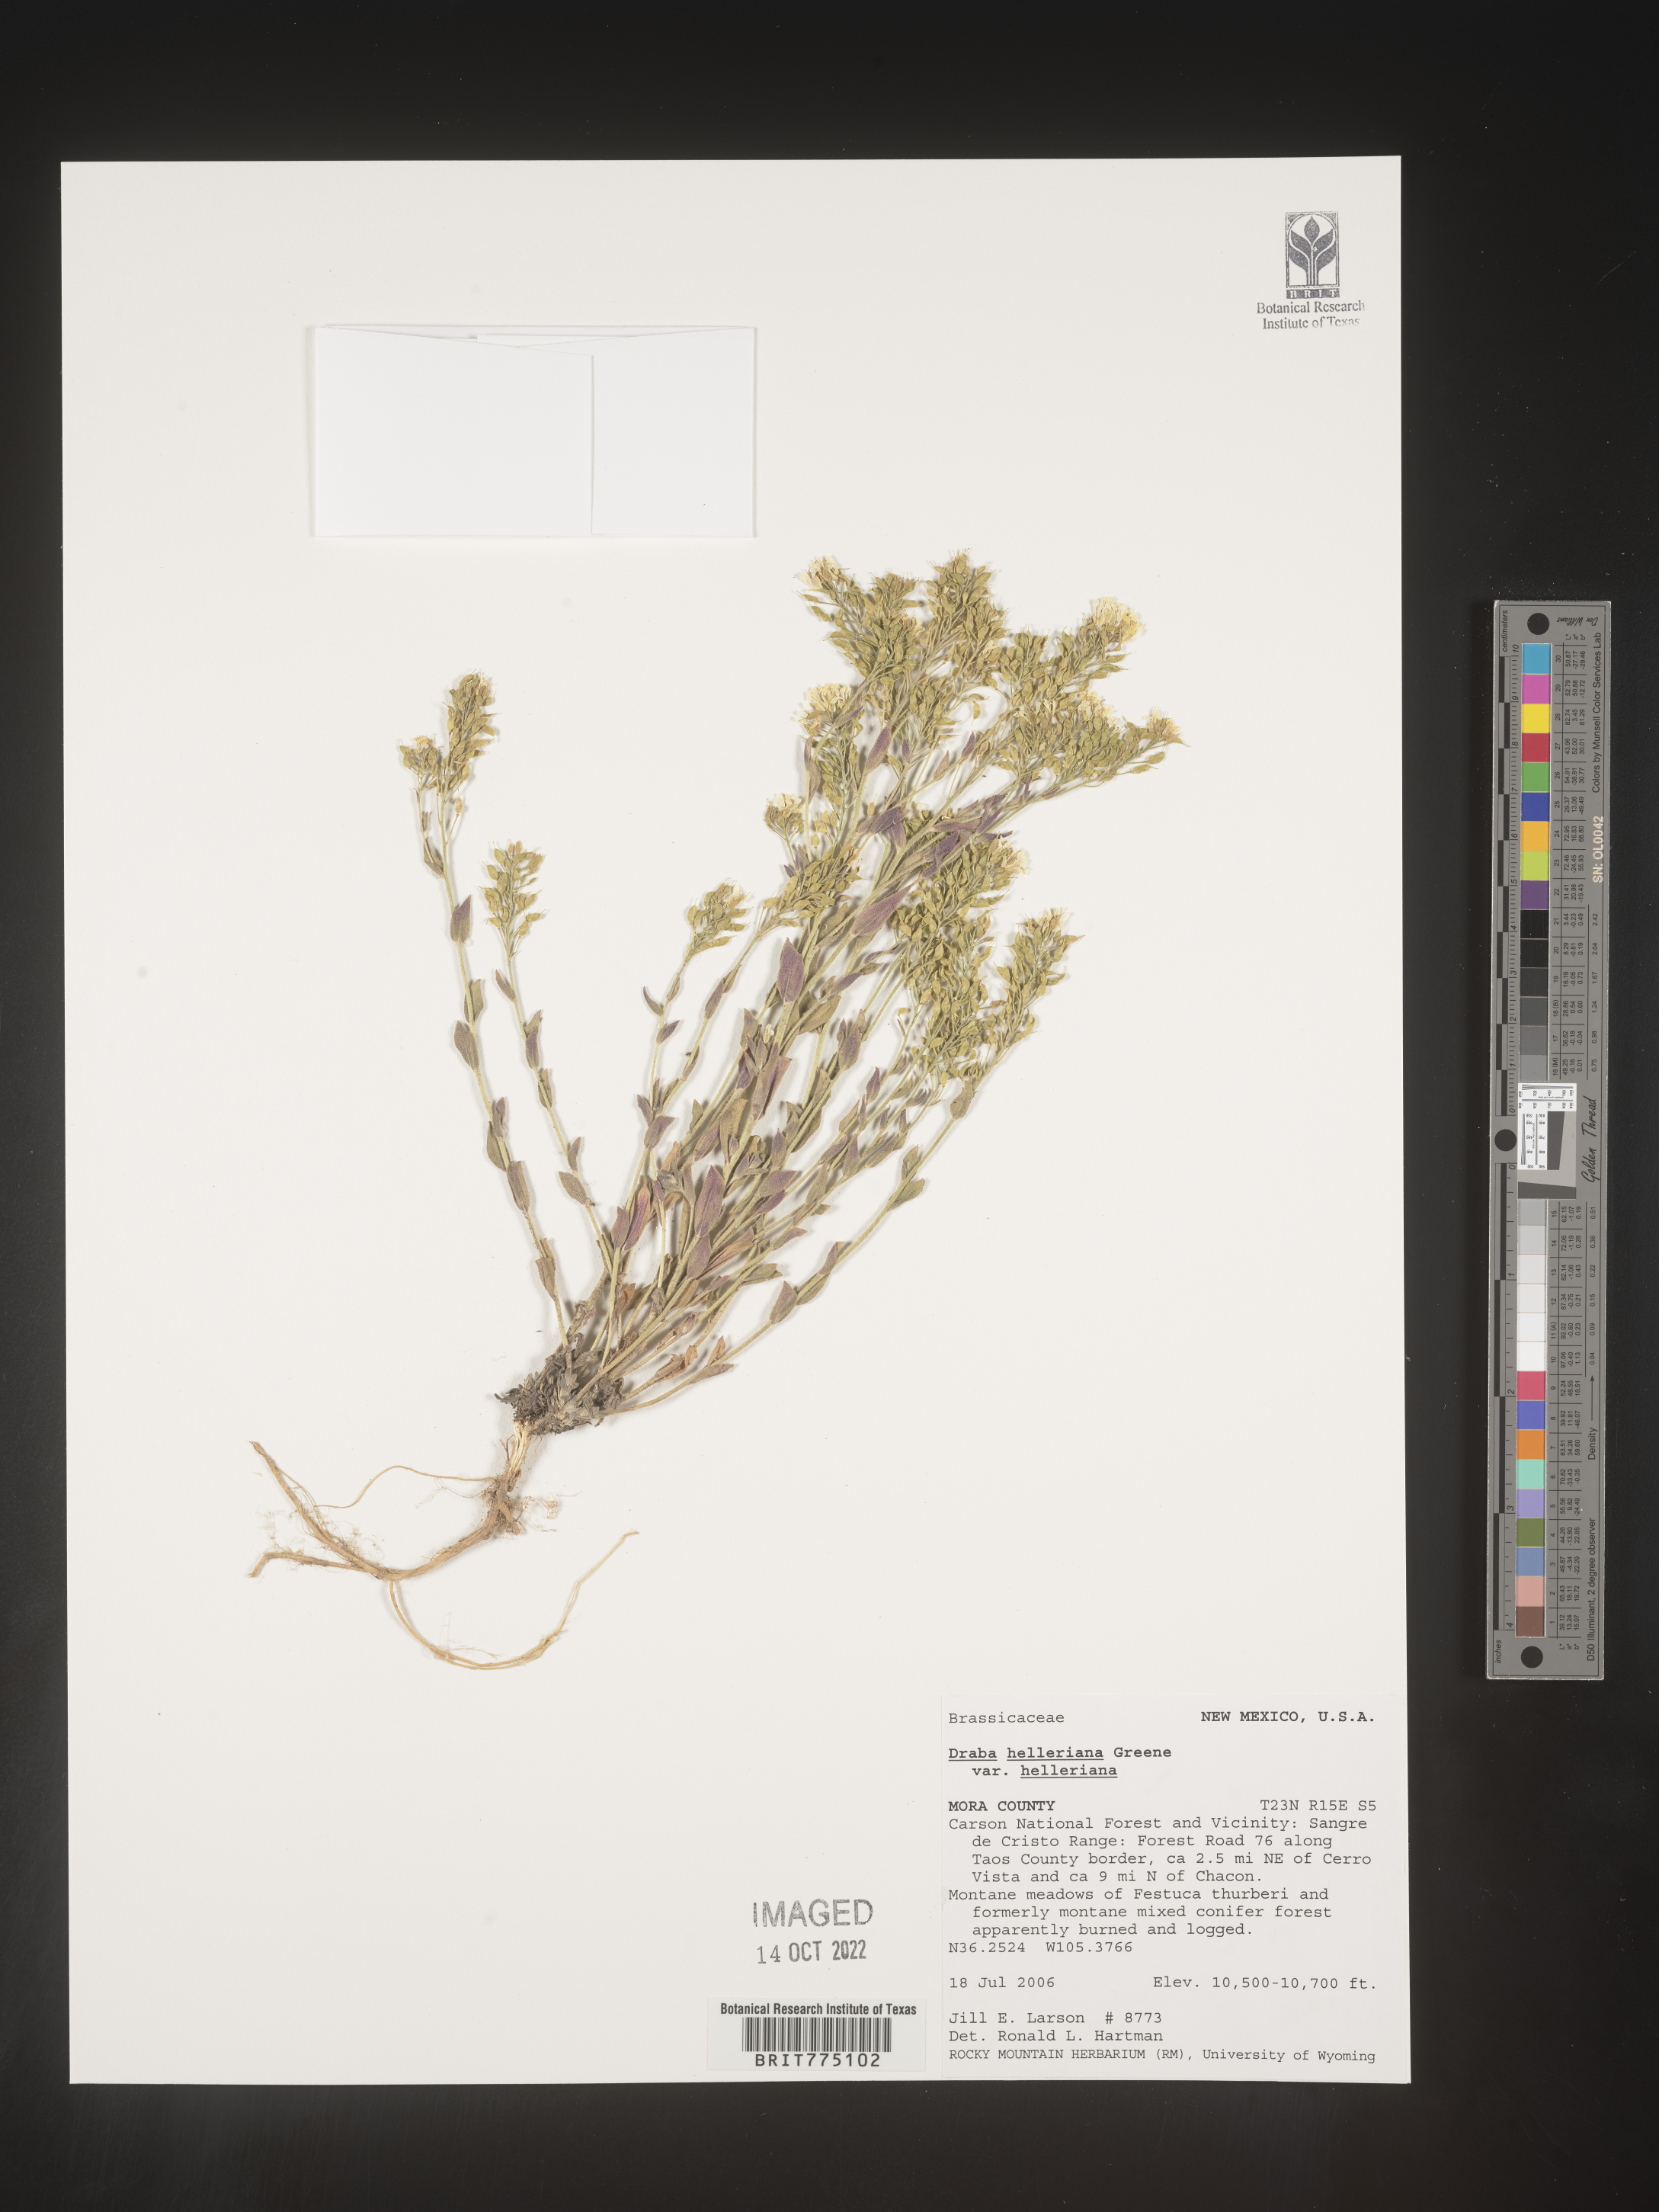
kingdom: Plantae
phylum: Tracheophyta
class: Magnoliopsida
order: Brassicales
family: Brassicaceae
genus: Draba
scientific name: Draba
